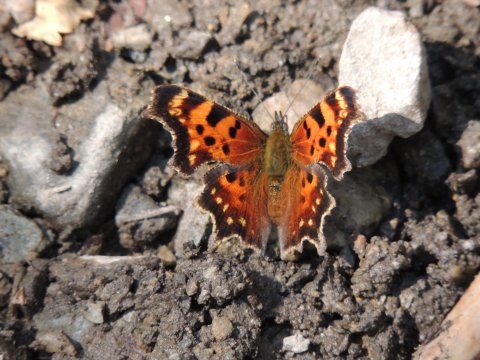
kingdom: Animalia
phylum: Arthropoda
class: Insecta
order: Lepidoptera
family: Nymphalidae
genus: Polygonia
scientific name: Polygonia faunus
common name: Green Comma
